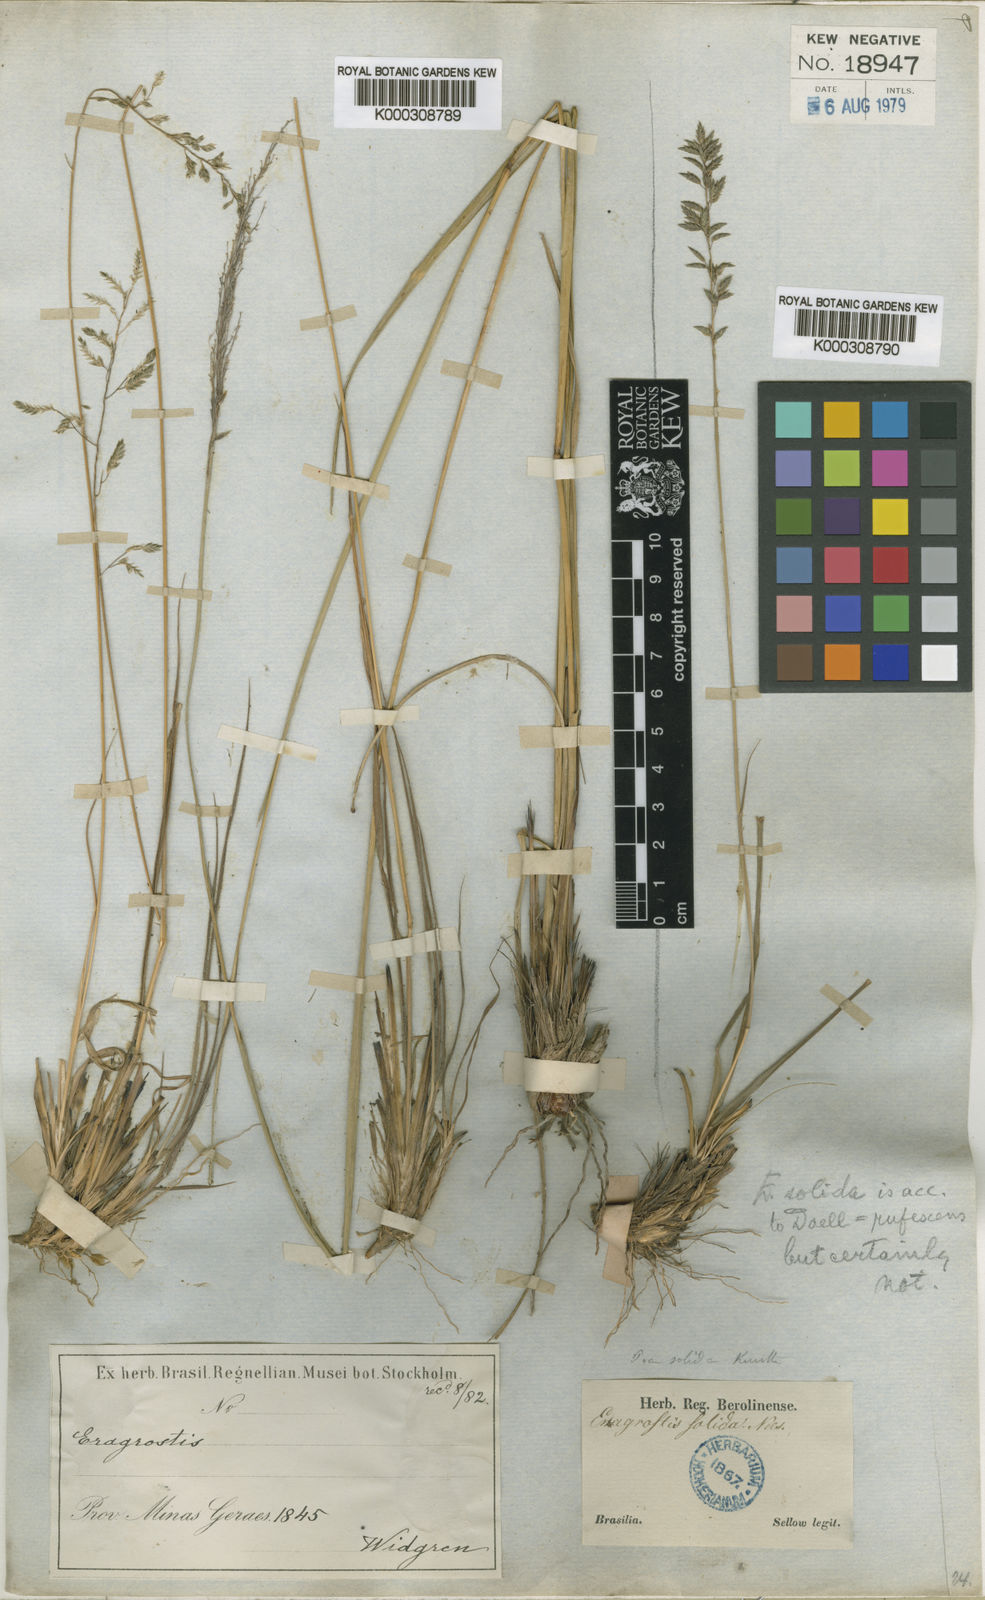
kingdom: Plantae
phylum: Tracheophyta
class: Liliopsida
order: Poales
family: Poaceae
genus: Eragrostis
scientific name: Eragrostis
